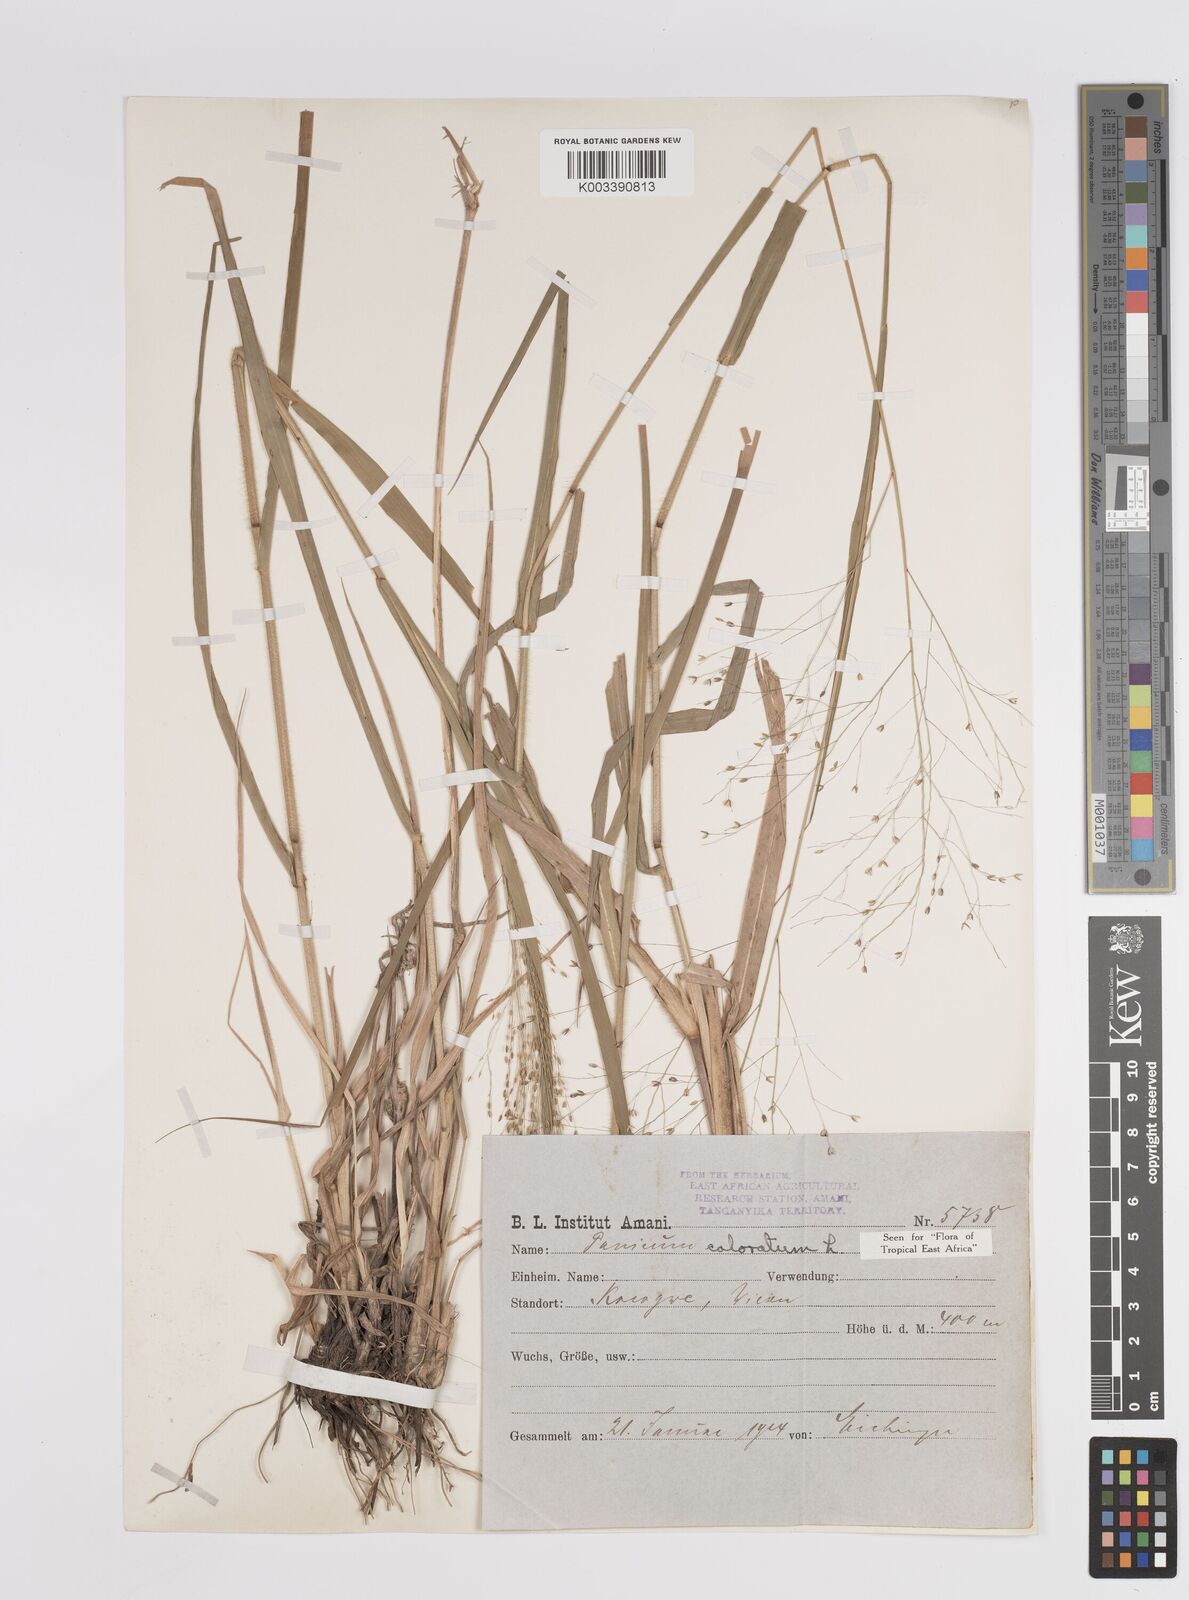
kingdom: Plantae
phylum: Tracheophyta
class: Liliopsida
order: Poales
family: Poaceae
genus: Panicum
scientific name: Panicum coloratum
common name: Kleingrass
